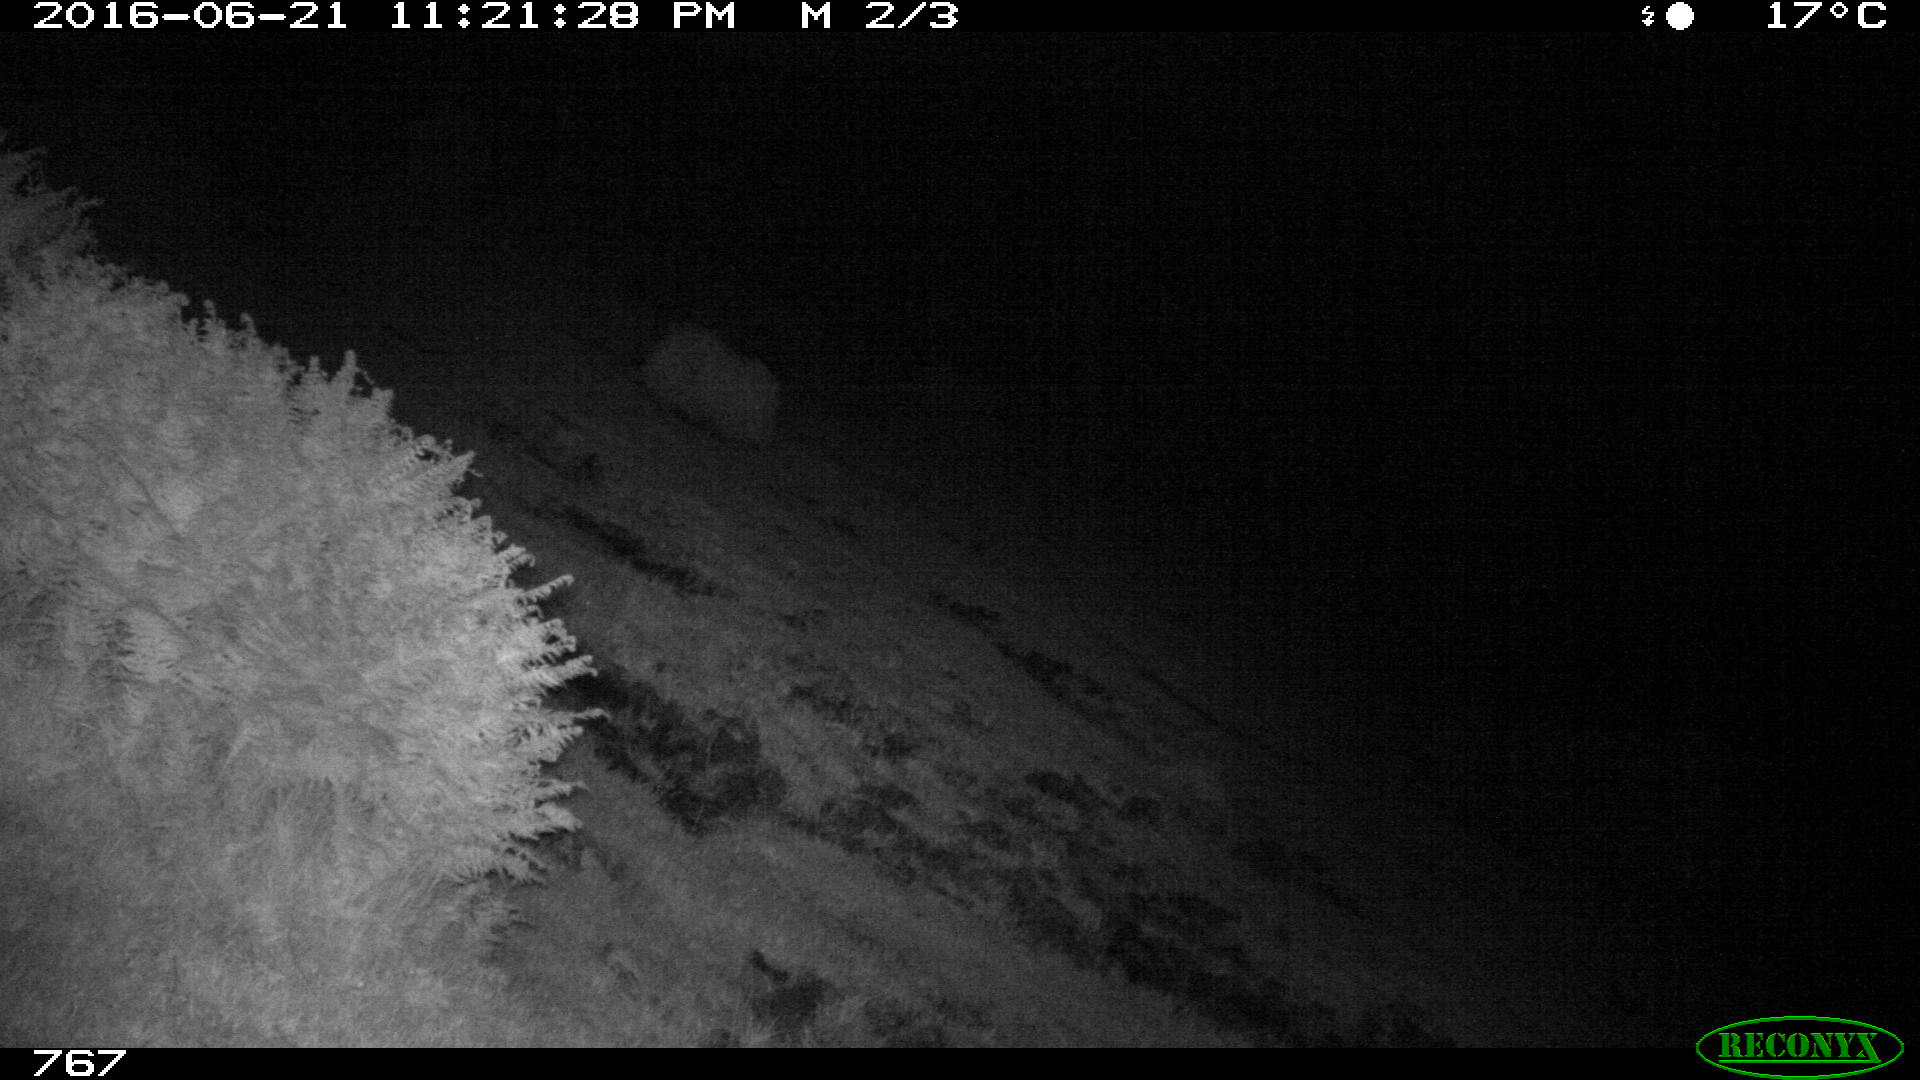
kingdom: Animalia
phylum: Chordata
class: Mammalia
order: Artiodactyla
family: Suidae
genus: Sus
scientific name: Sus scrofa
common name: Wild boar
